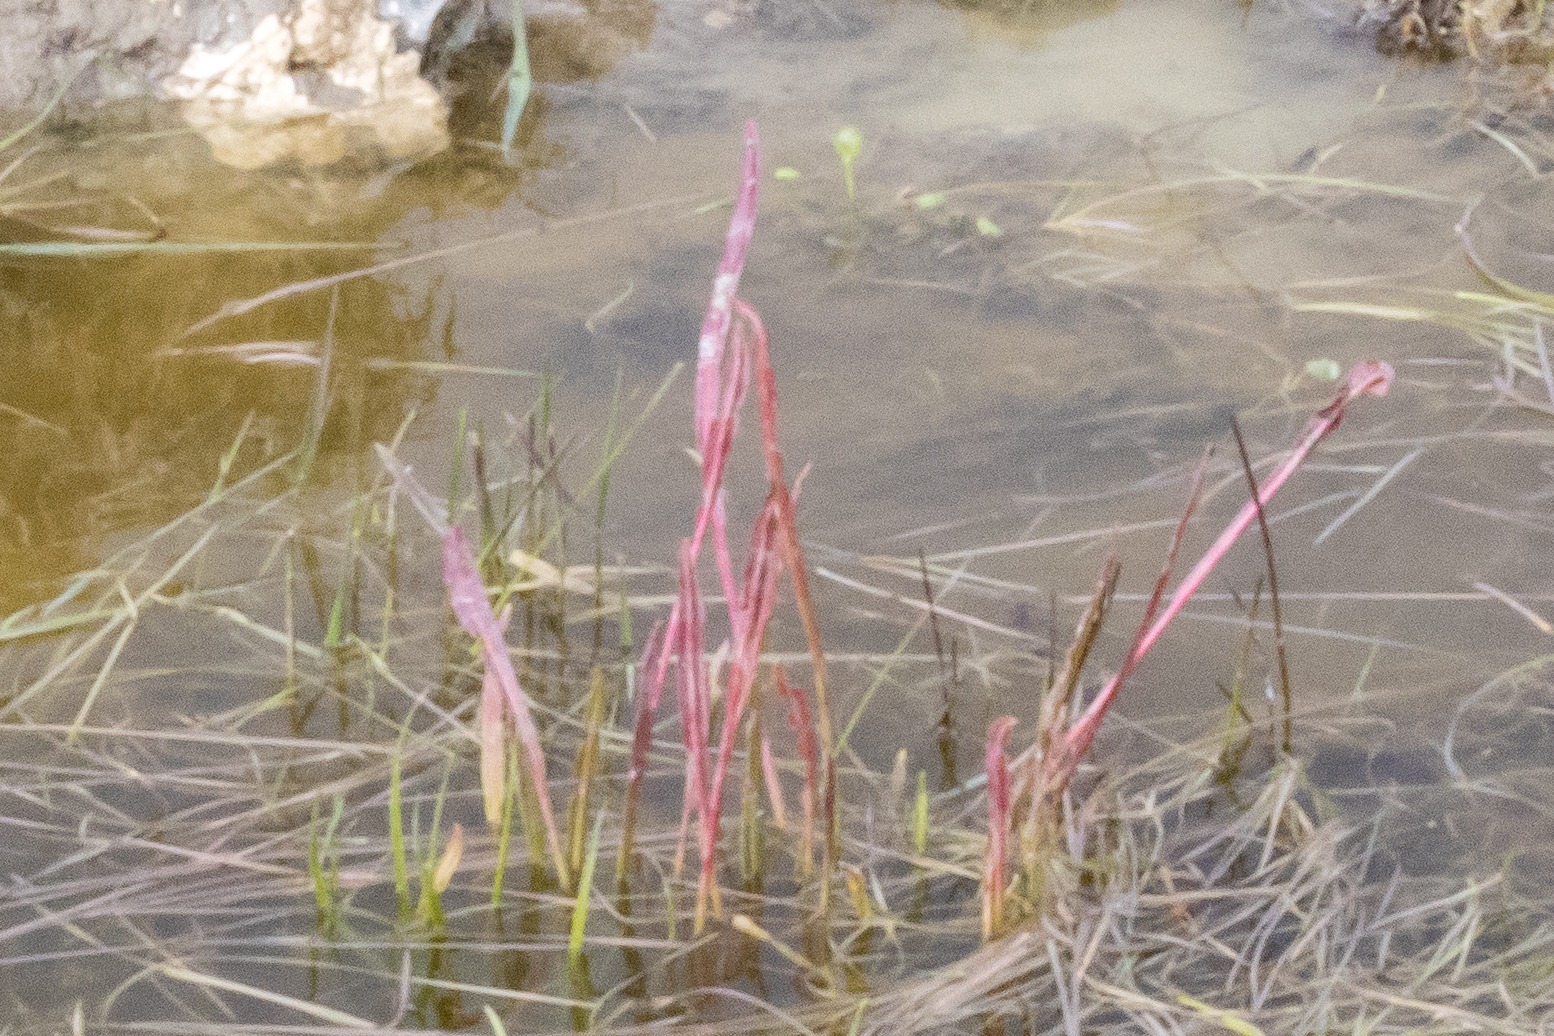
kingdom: Plantae
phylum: Tracheophyta
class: Magnoliopsida
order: Caryophyllales
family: Polygonaceae
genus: Rumex
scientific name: Rumex hydrolapathum
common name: Vand-skræppe
